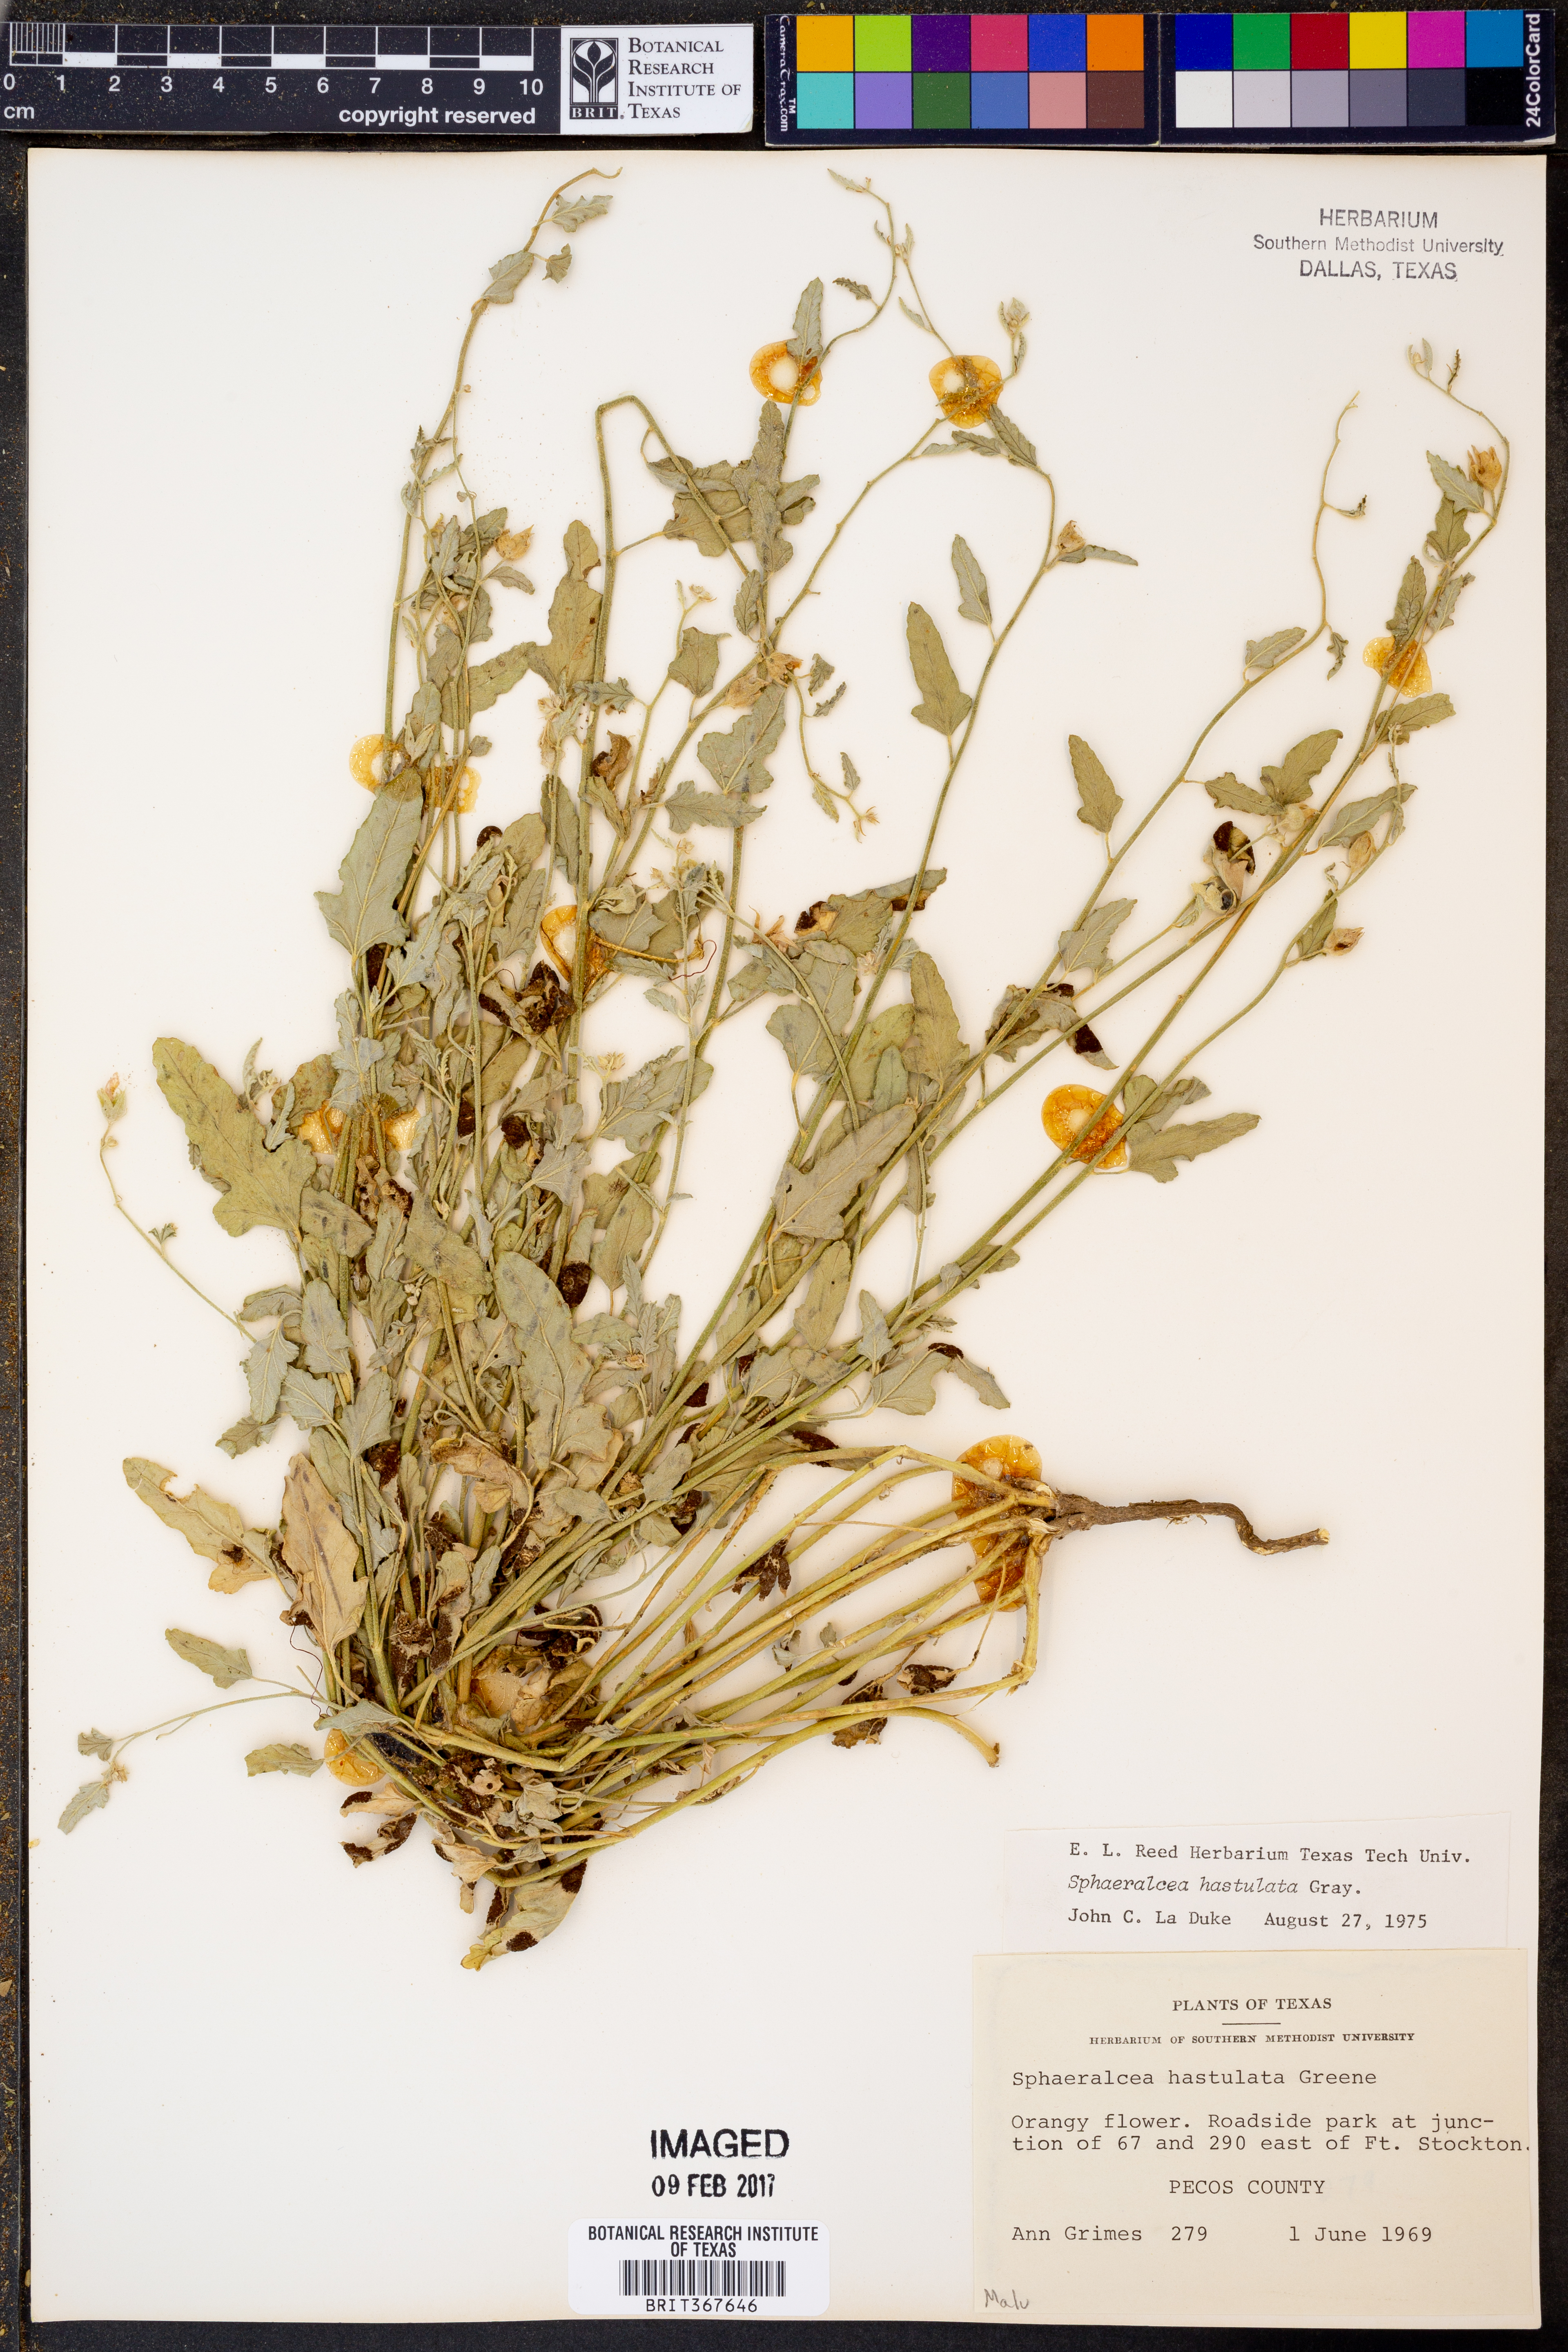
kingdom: Plantae
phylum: Tracheophyta
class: Magnoliopsida
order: Malvales
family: Malvaceae
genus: Sphaeralcea
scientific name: Sphaeralcea hastulata
